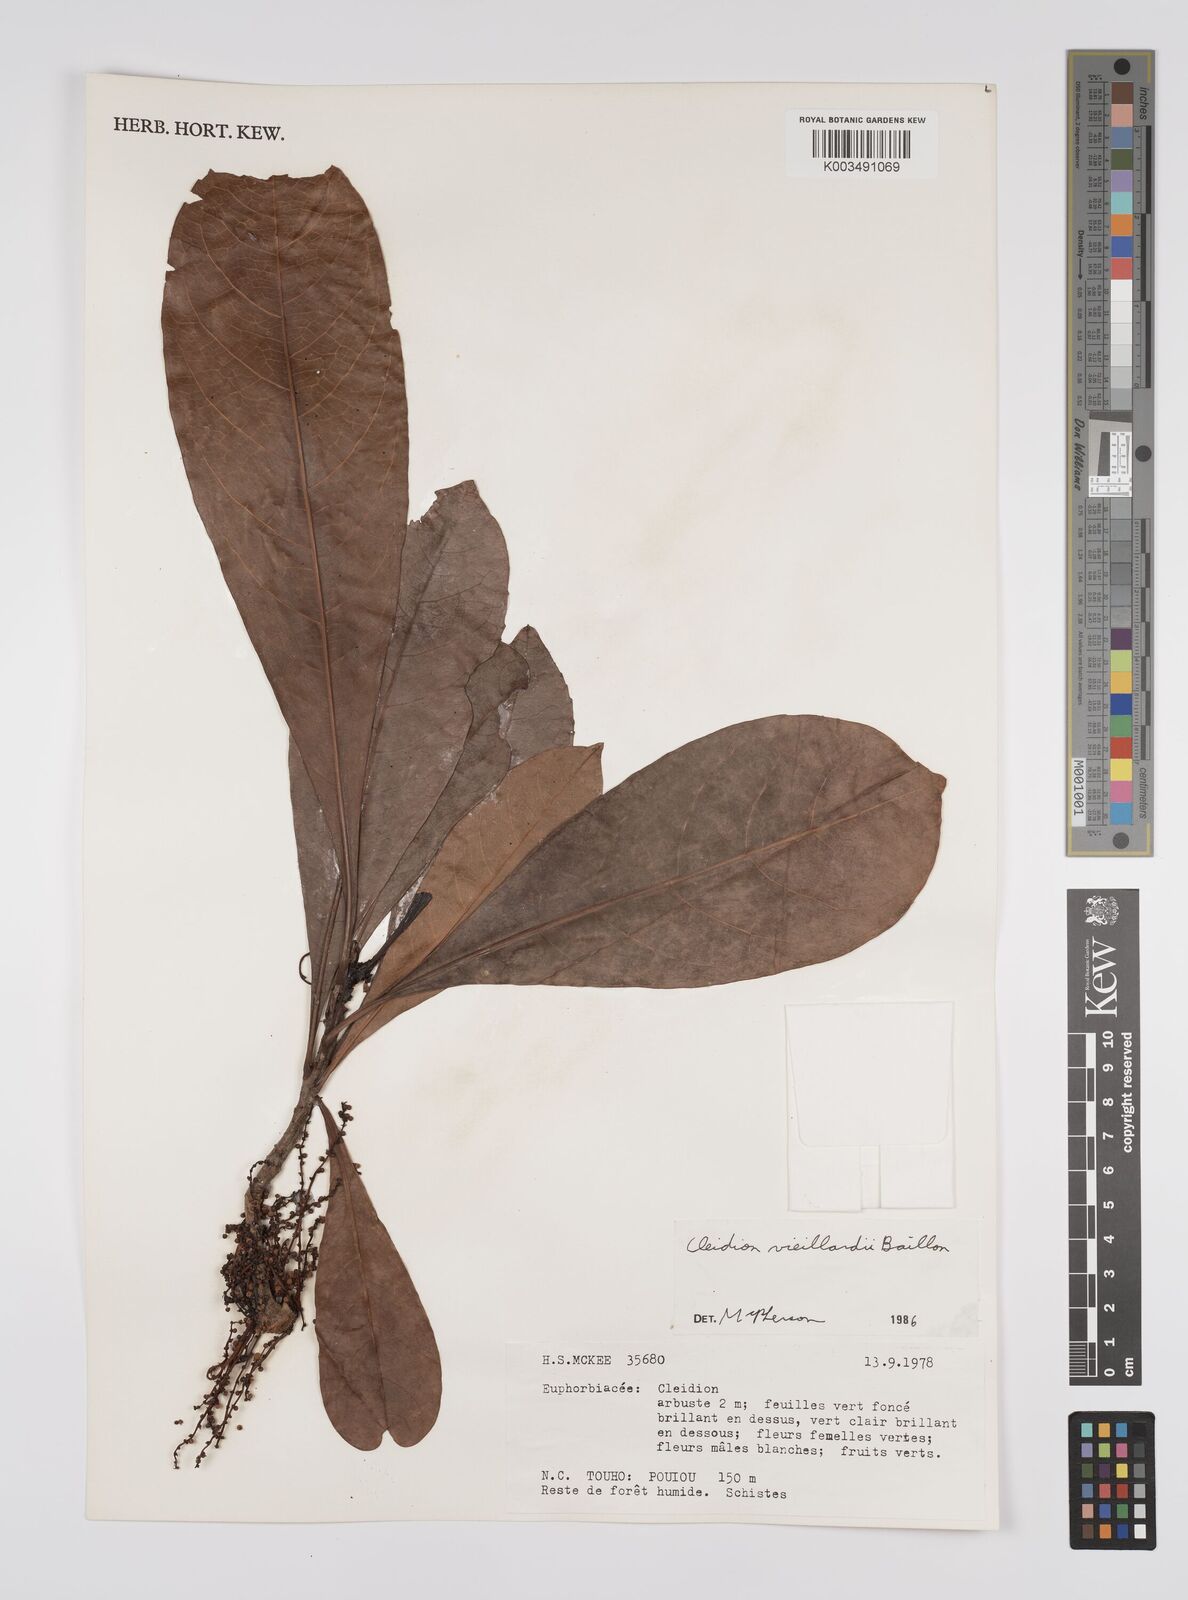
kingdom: Plantae
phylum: Tracheophyta
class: Magnoliopsida
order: Malpighiales
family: Euphorbiaceae
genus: Cleidion
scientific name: Cleidion vieillardii
